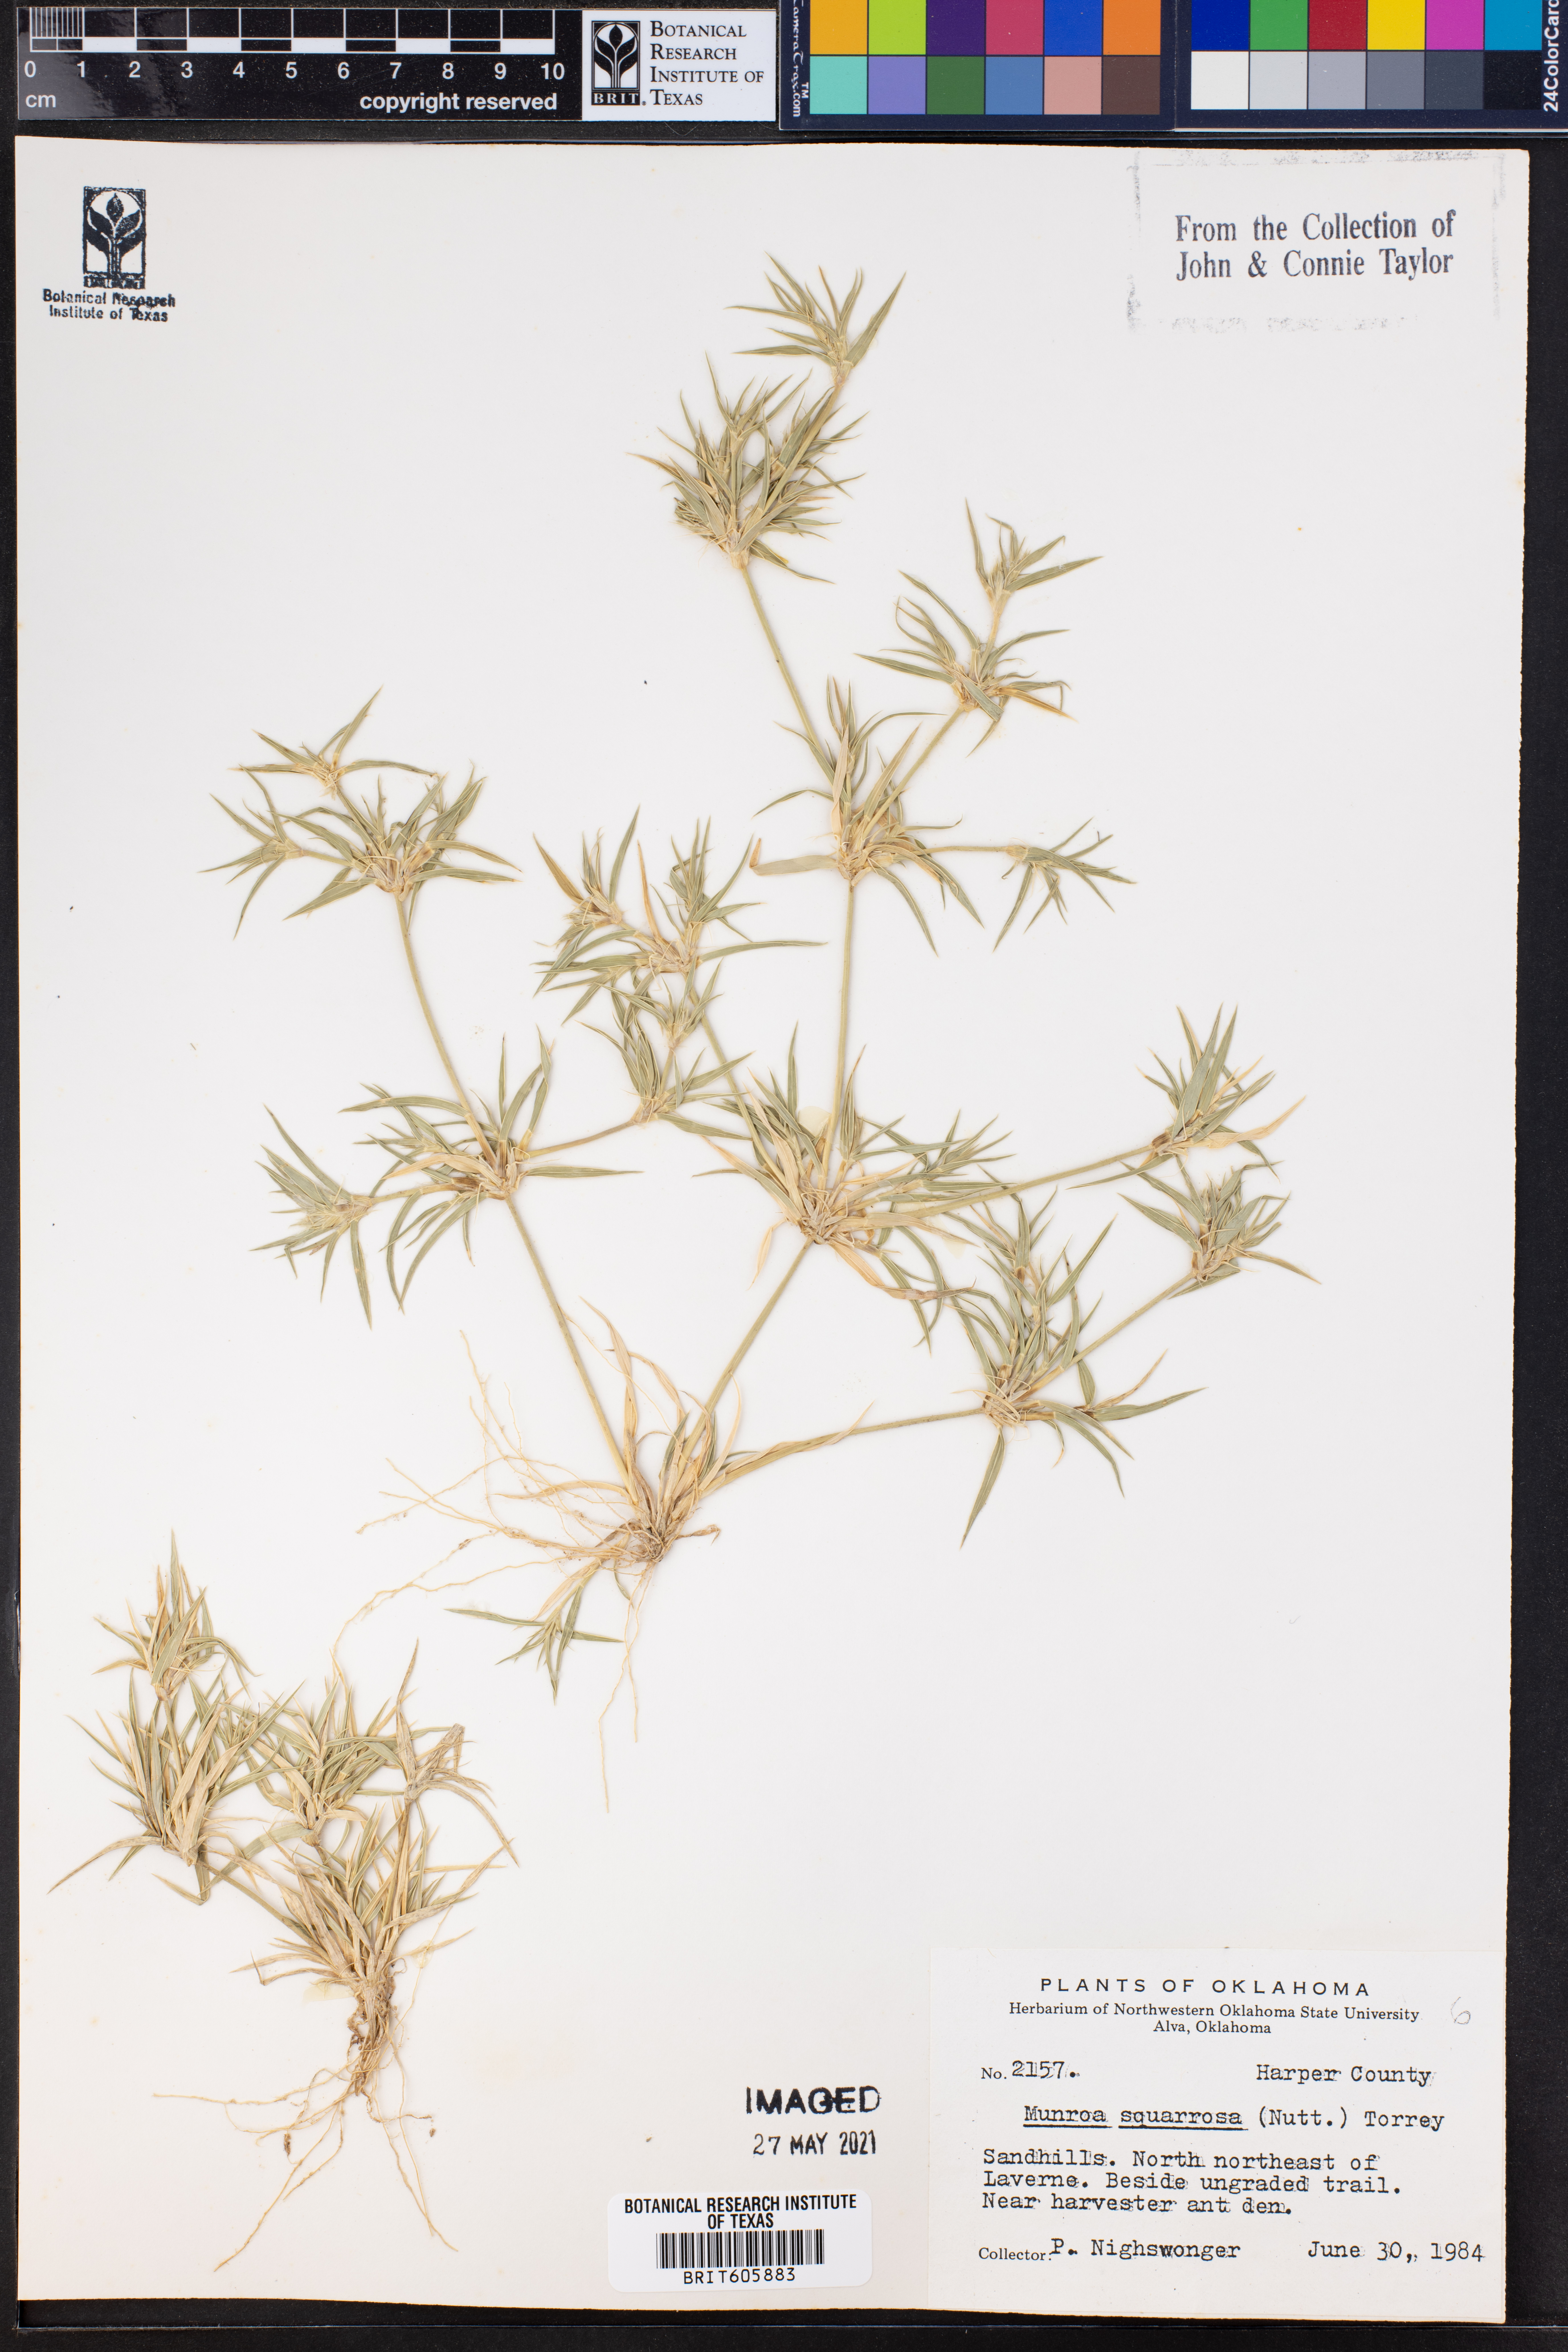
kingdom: Plantae
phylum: Tracheophyta
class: Liliopsida
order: Poales
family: Poaceae
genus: Munroa
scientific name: Munroa squarrosa
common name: False buffalo grass
